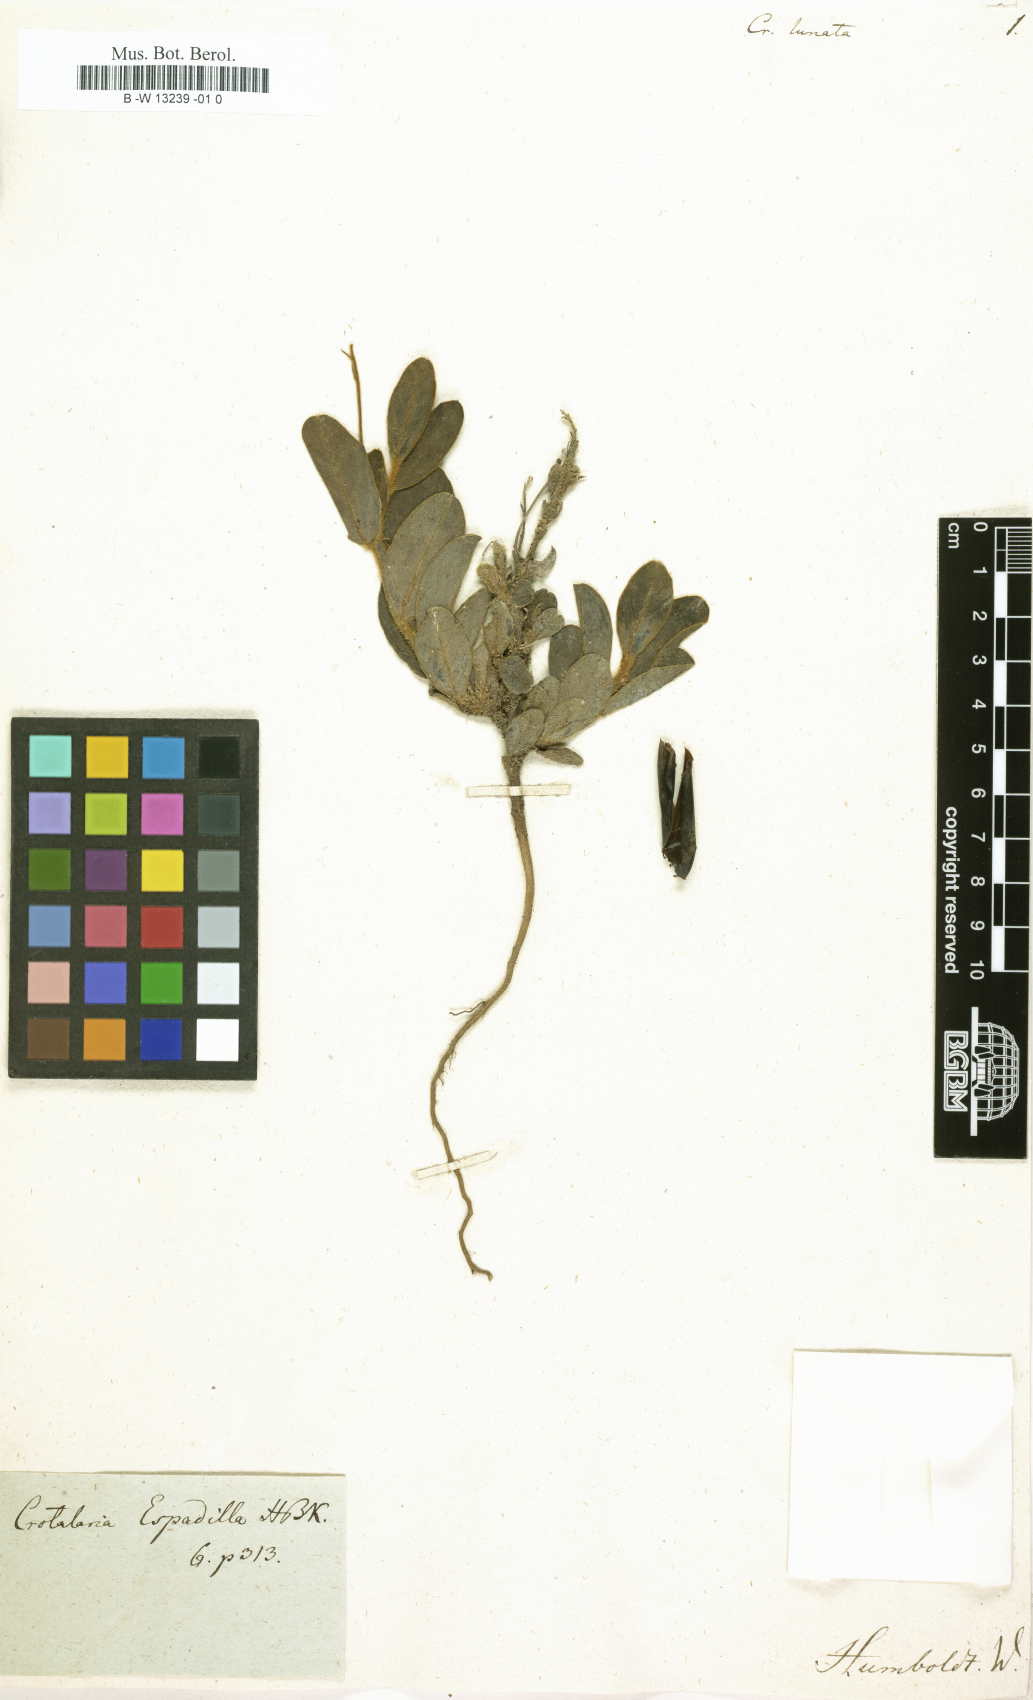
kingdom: Plantae
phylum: Tracheophyta
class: Magnoliopsida
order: Fabales
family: Fabaceae
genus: Crotalaria
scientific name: Crotalaria beddomeana
